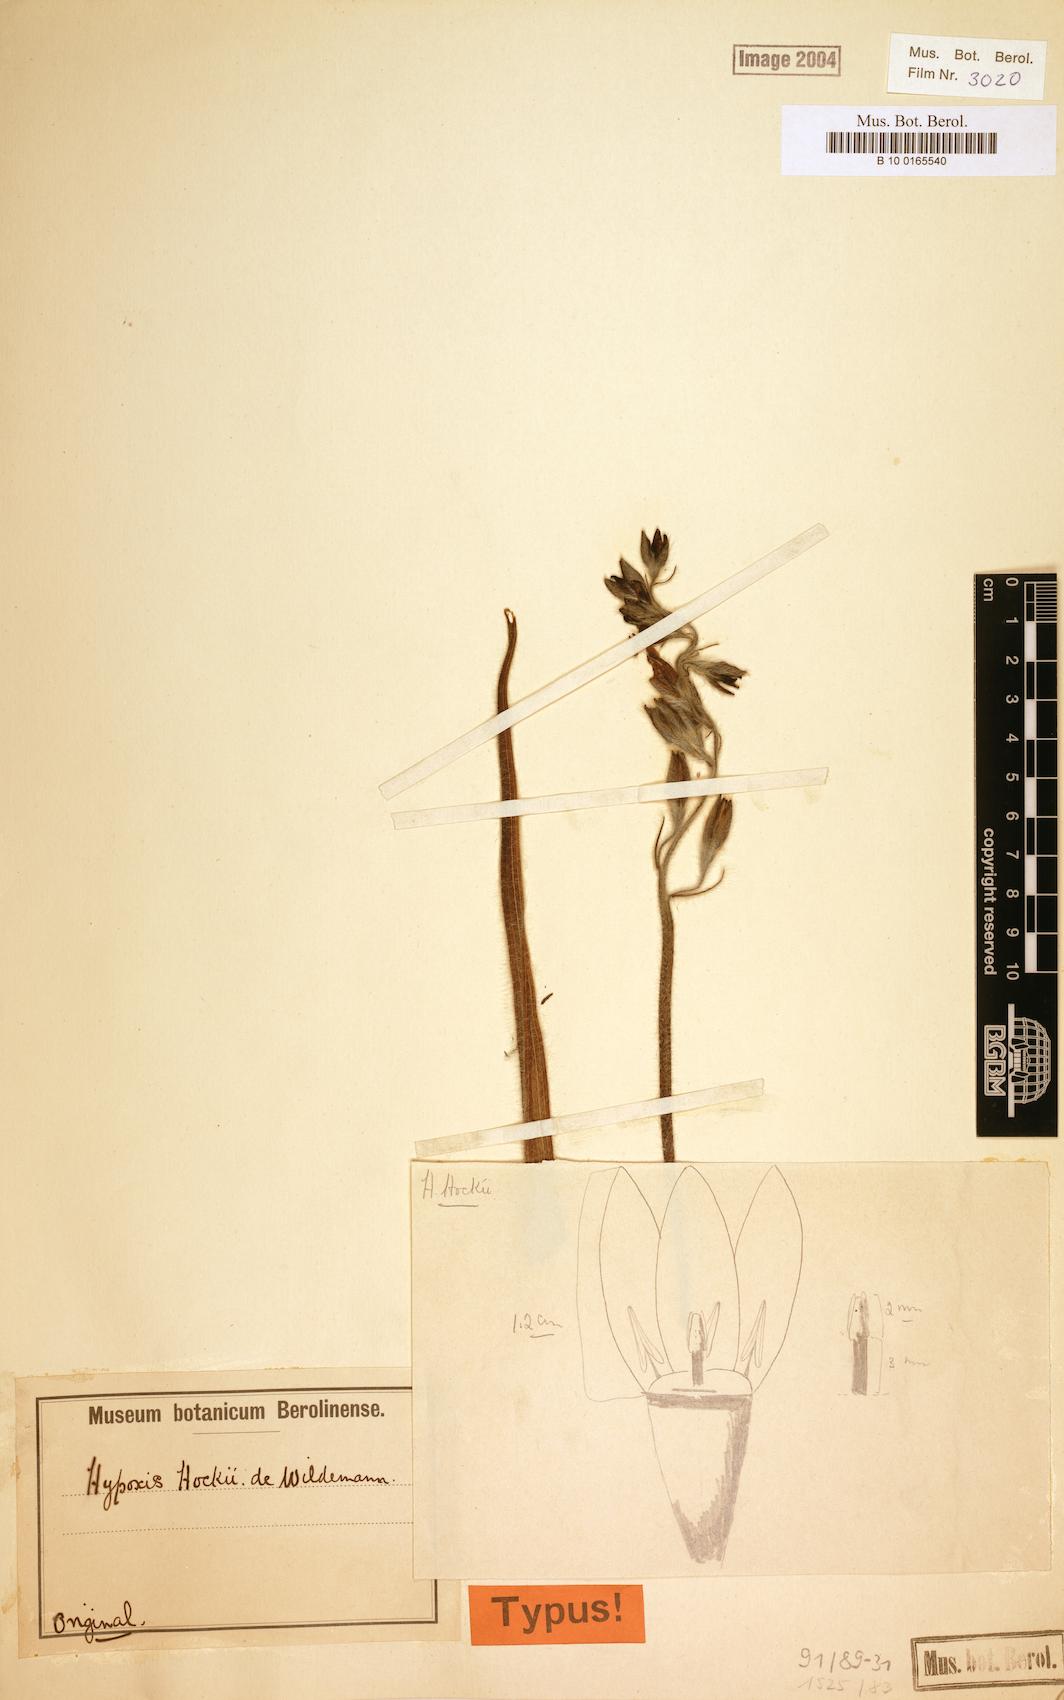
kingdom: Plantae
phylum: Tracheophyta
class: Liliopsida
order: Asparagales
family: Hypoxidaceae
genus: Hypoxis
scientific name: Hypoxis fischeri
